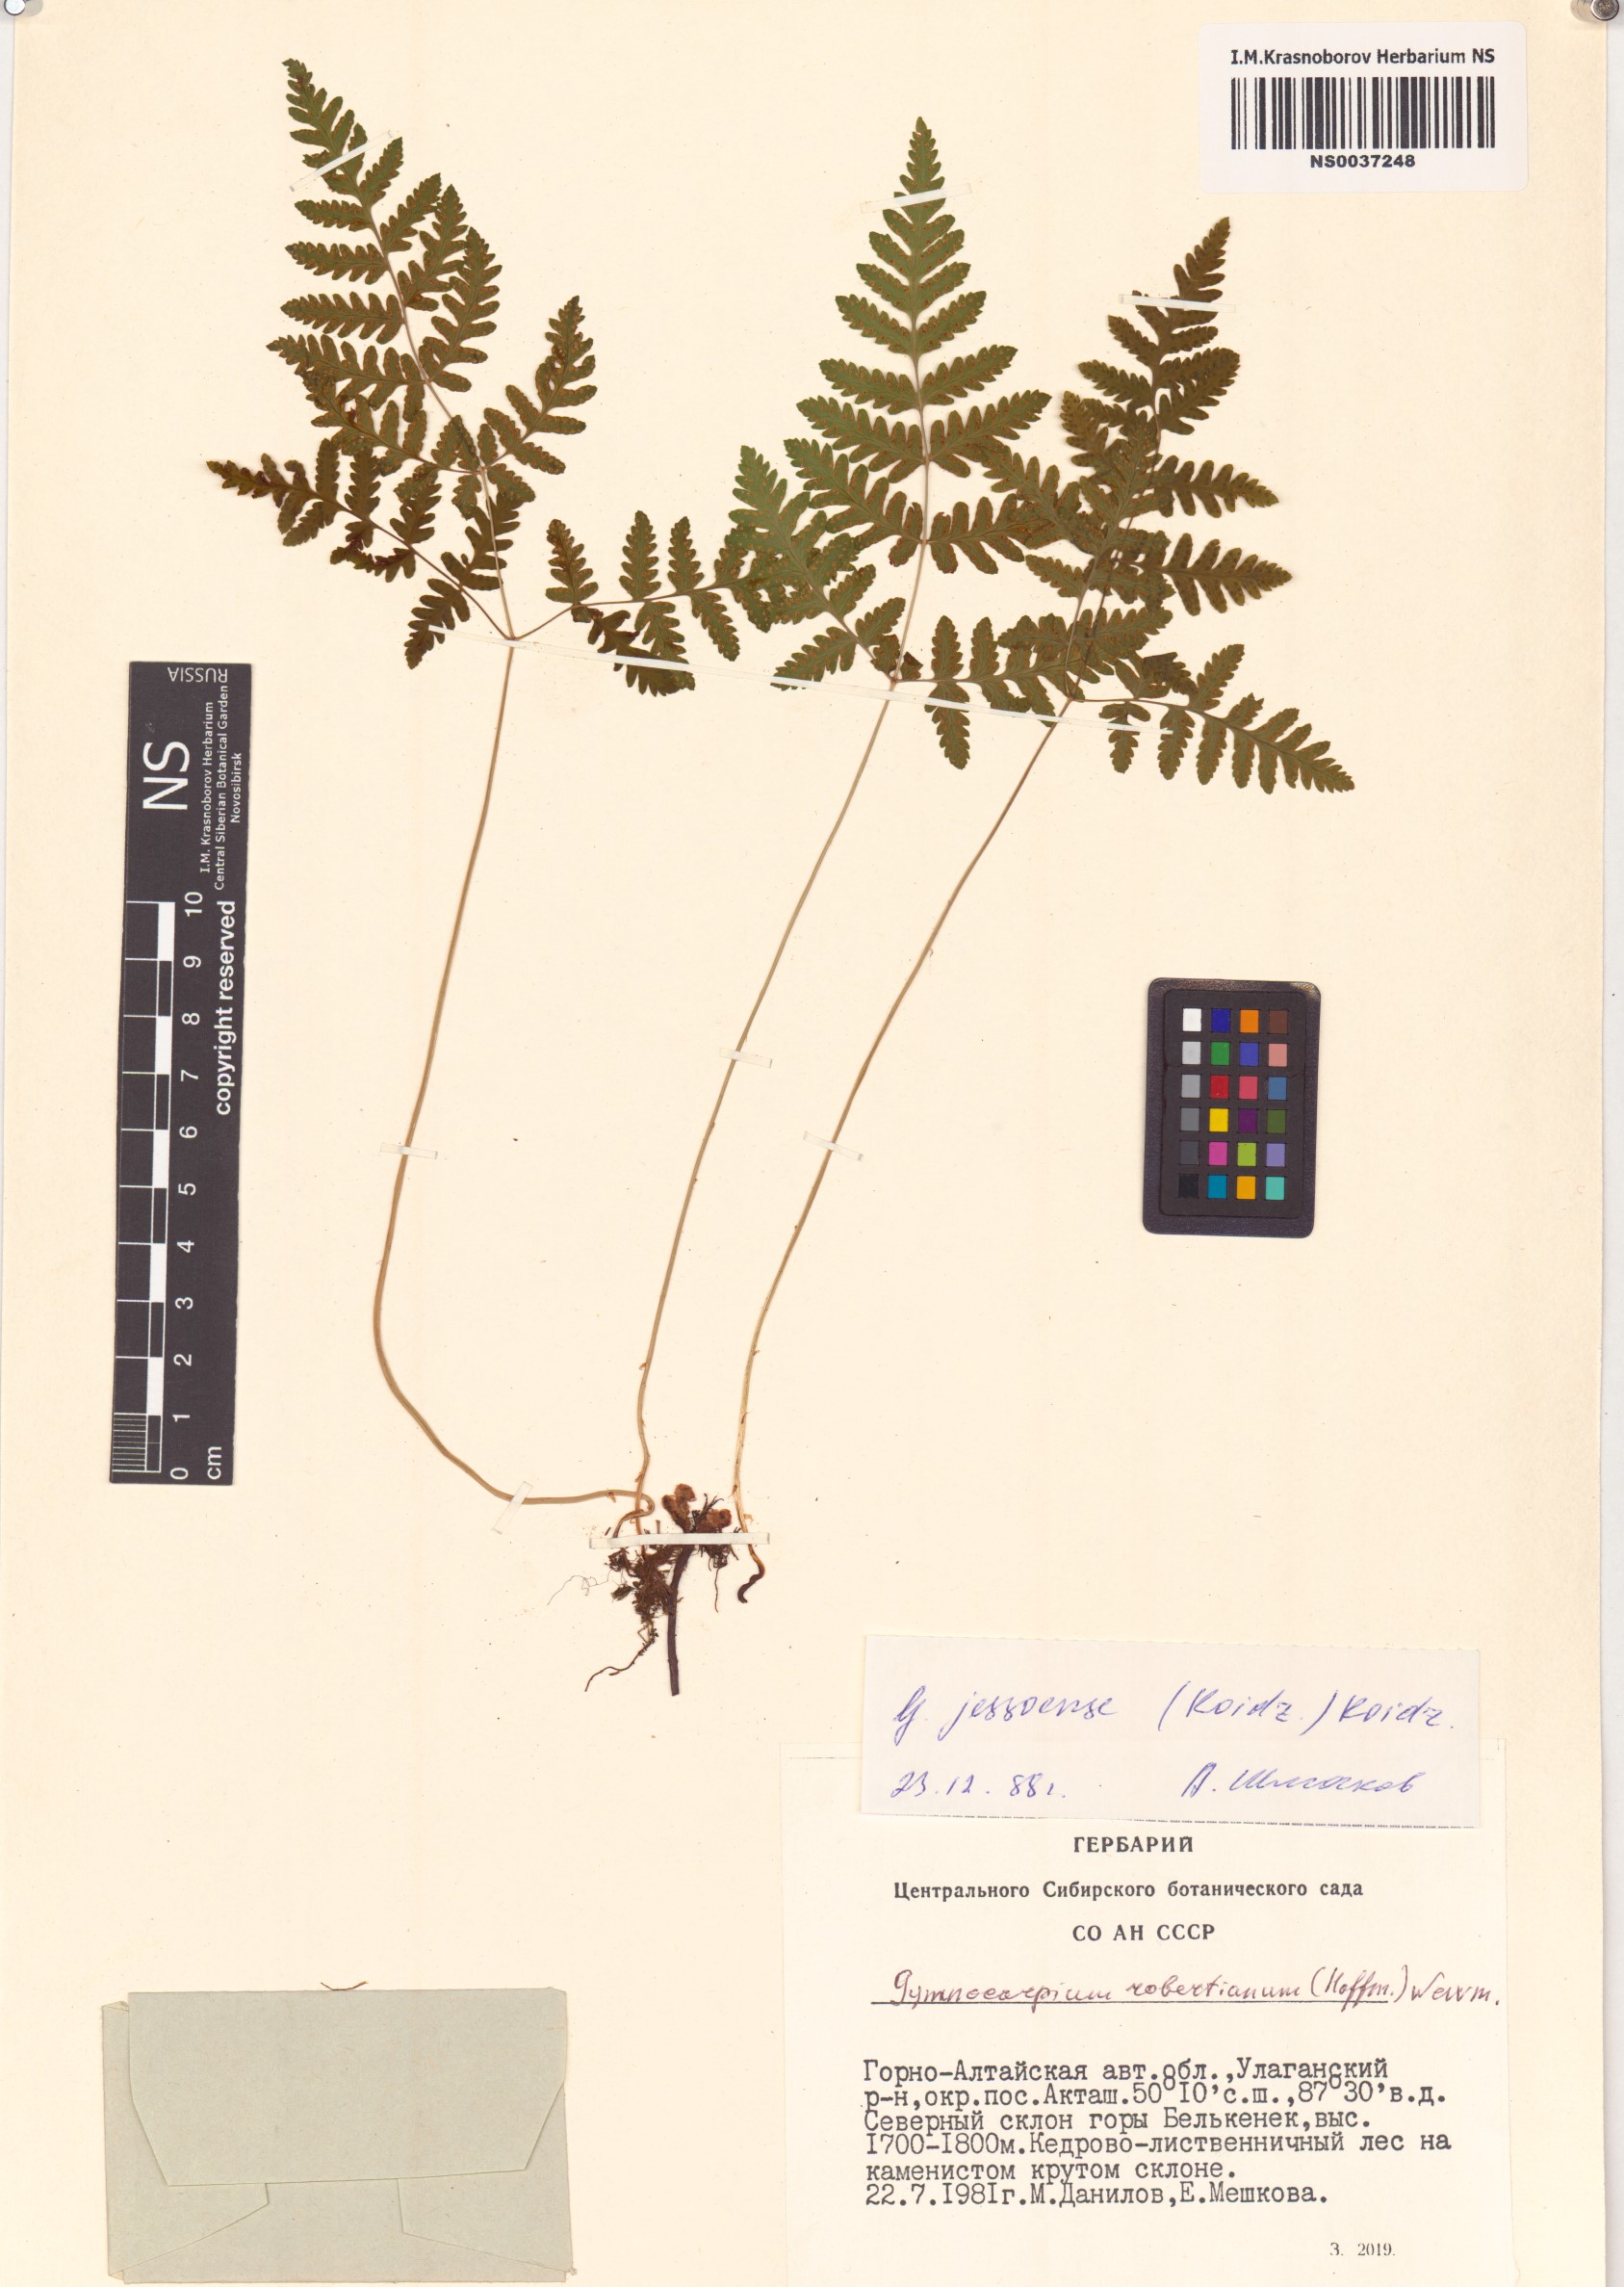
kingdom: Plantae
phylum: Tracheophyta
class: Polypodiopsida
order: Polypodiales
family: Cystopteridaceae
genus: Gymnocarpium
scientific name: Gymnocarpium jessoense
